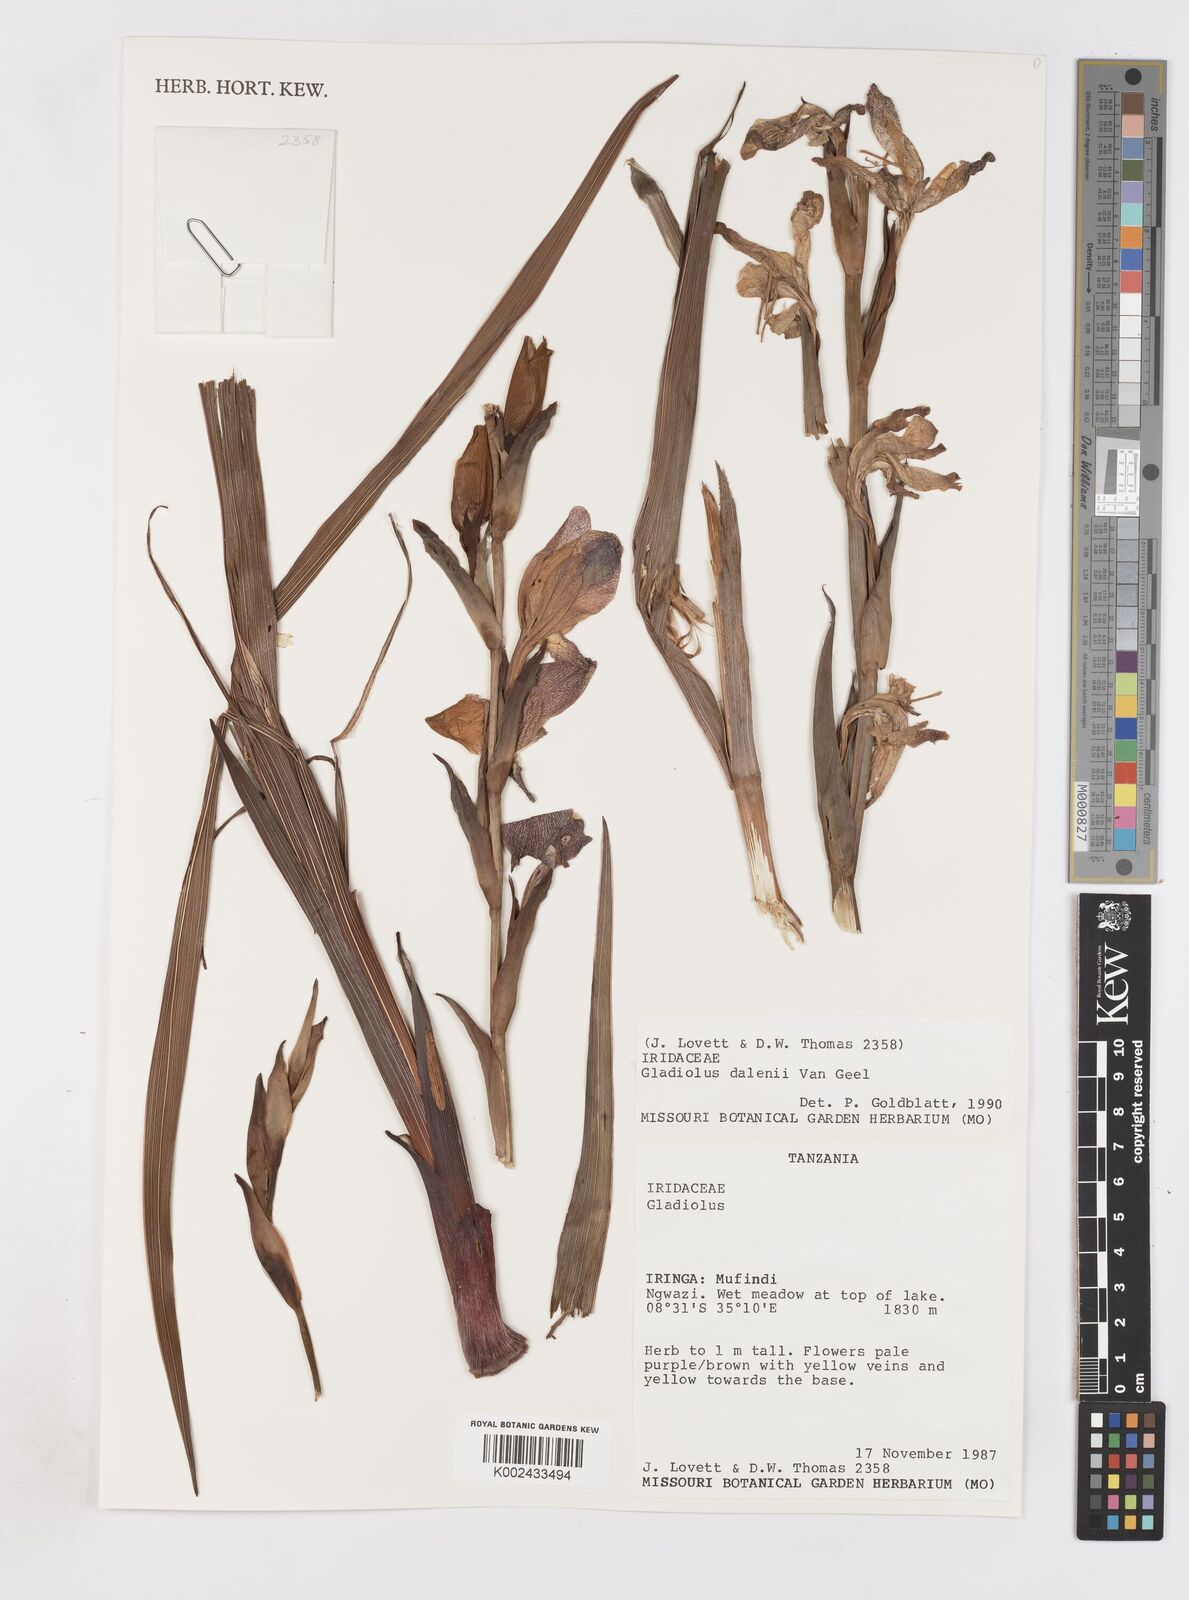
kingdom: Plantae
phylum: Tracheophyta
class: Liliopsida
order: Asparagales
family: Iridaceae
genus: Gladiolus
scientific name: Gladiolus dalenii
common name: Cornflag
